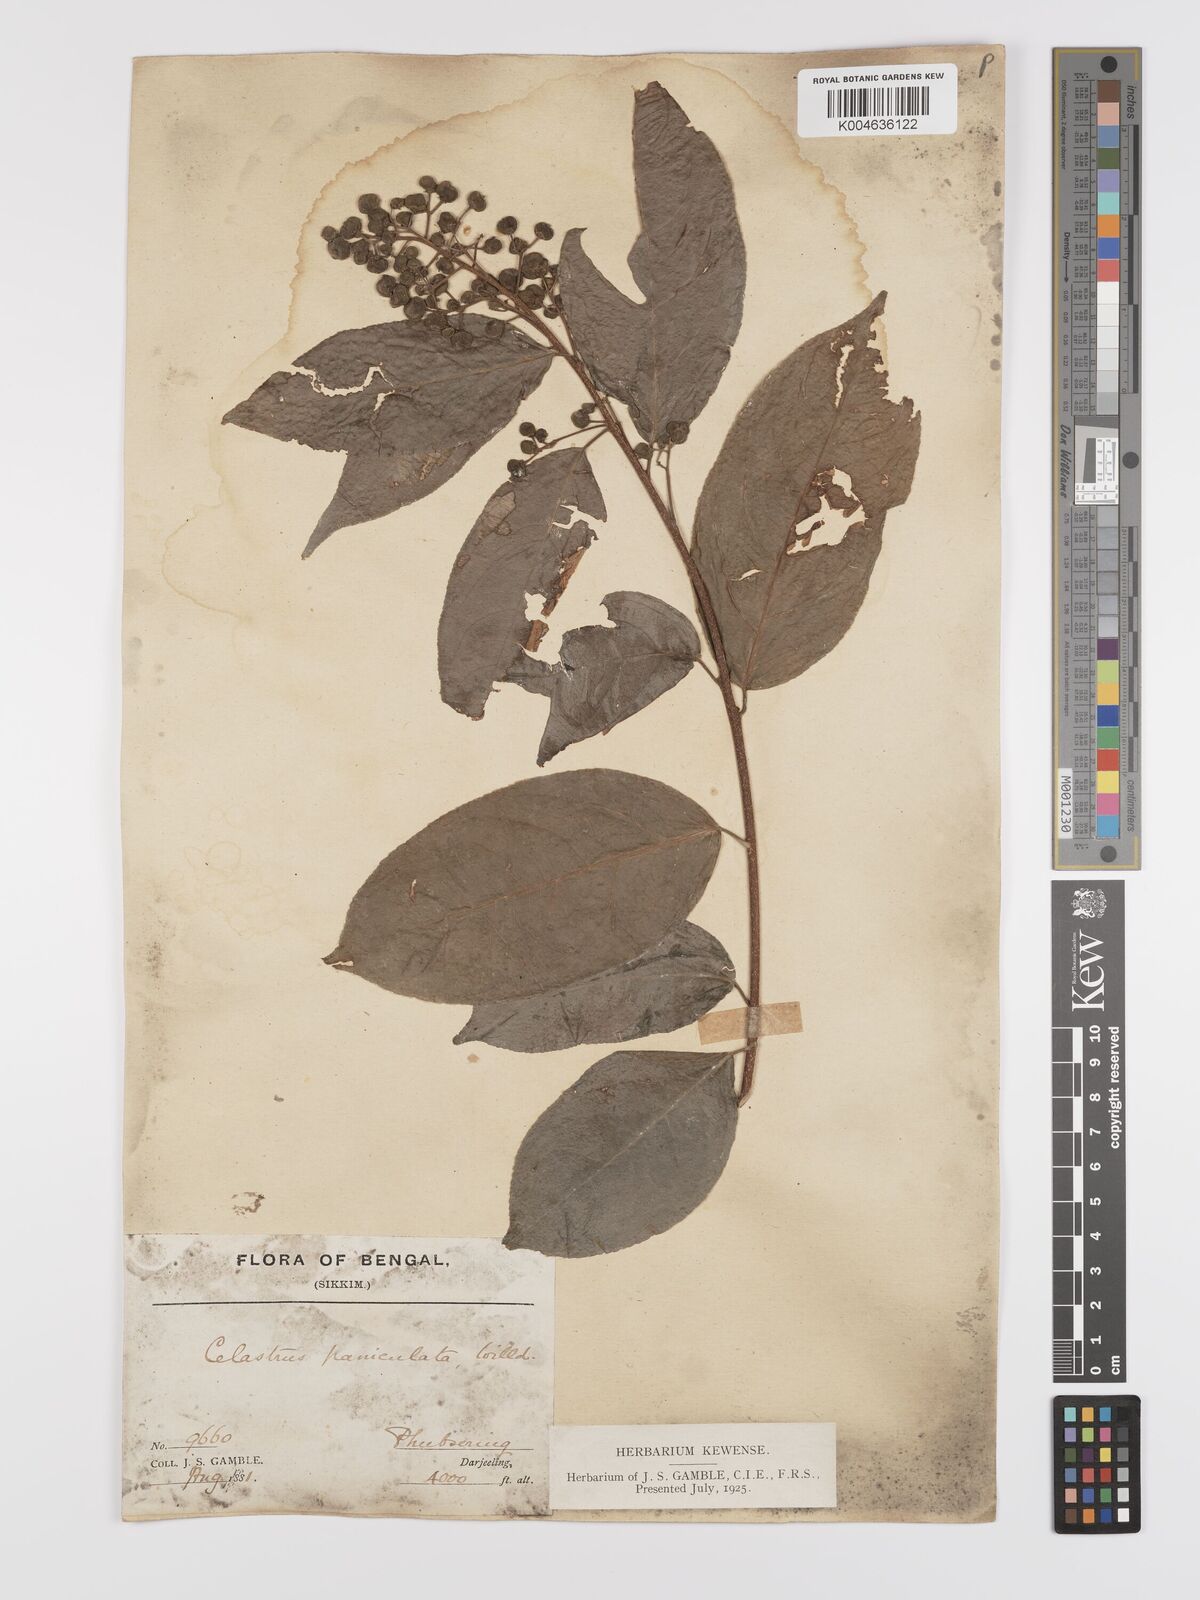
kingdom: Plantae
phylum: Tracheophyta
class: Magnoliopsida
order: Celastrales
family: Celastraceae
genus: Celastrus
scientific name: Celastrus paniculatus
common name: Oriental bittersweet; staff vine
